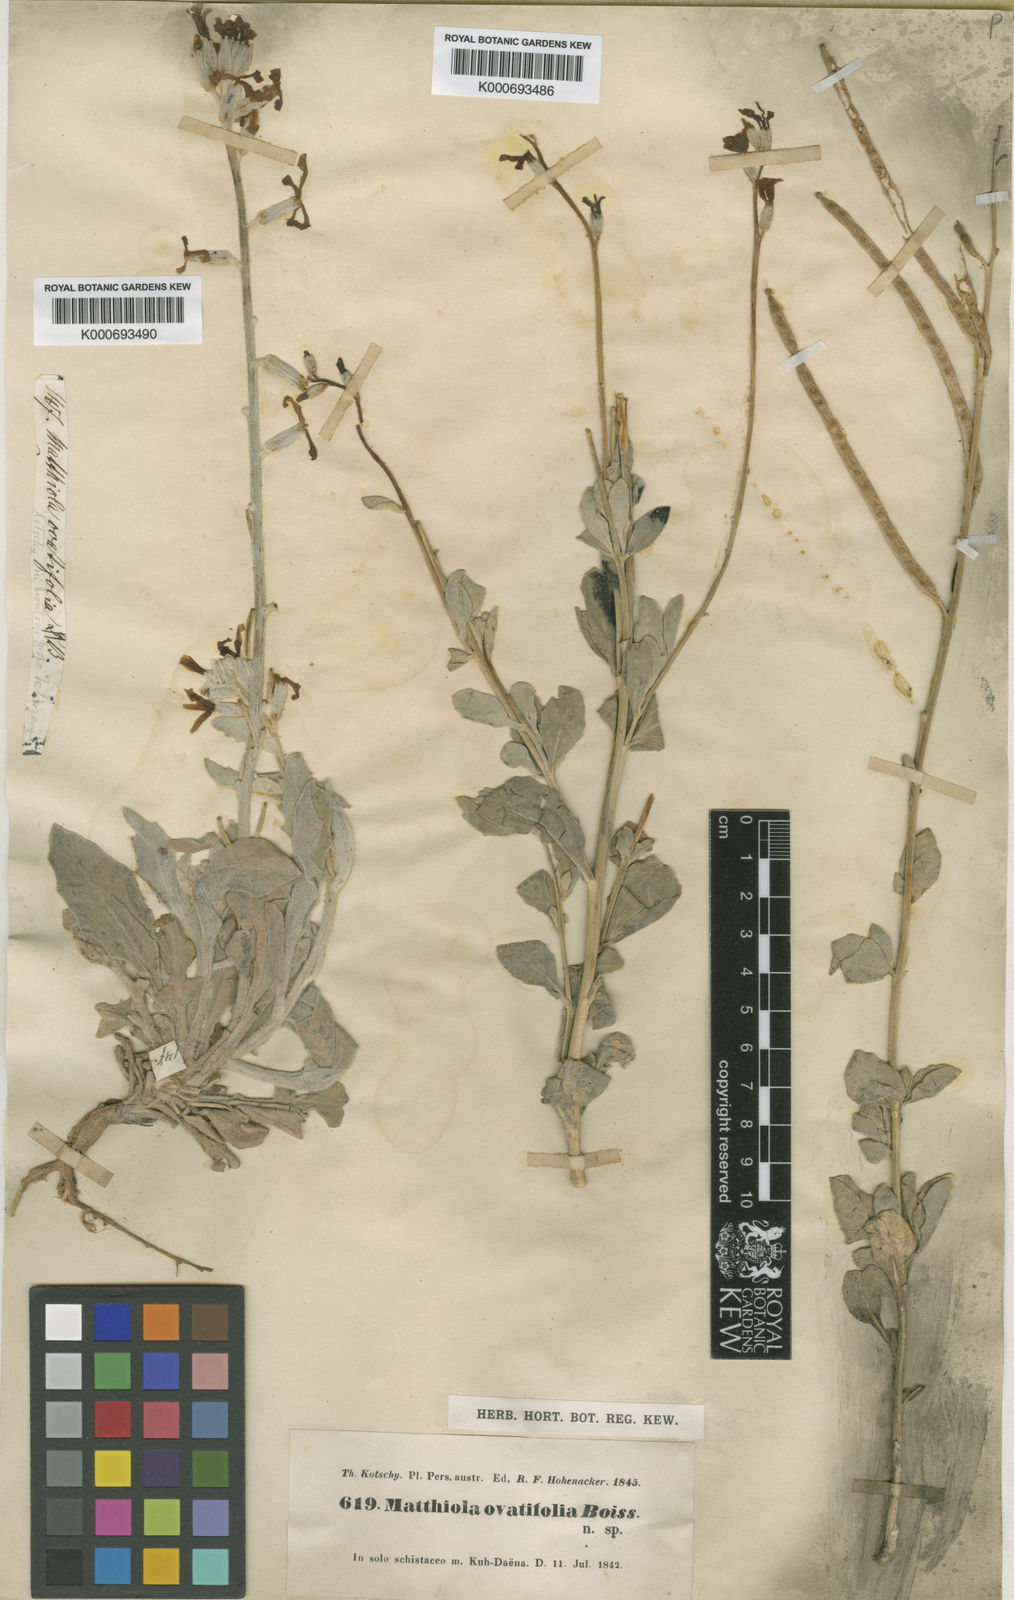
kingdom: Plantae
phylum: Tracheophyta
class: Magnoliopsida
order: Brassicales
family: Brassicaceae
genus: Matthiola
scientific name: Matthiola ovatifolia
